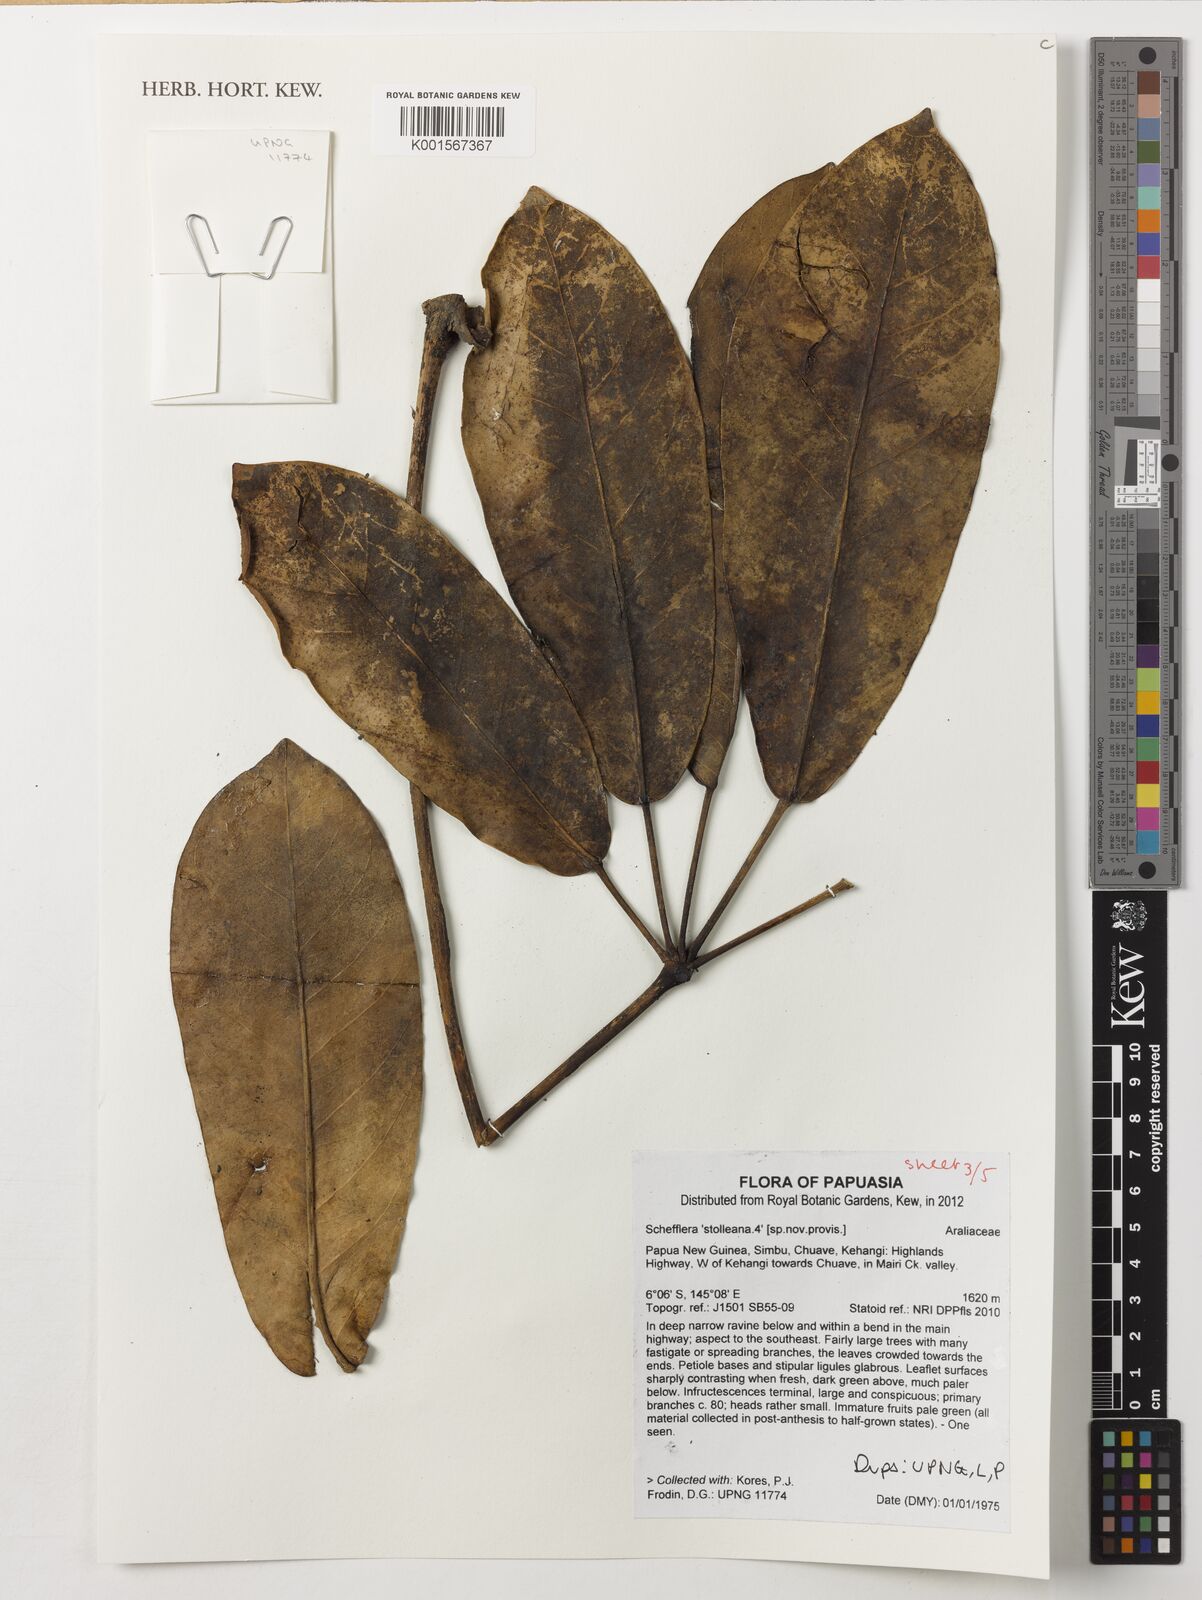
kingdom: Plantae
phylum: Tracheophyta
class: Magnoliopsida
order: Apiales
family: Araliaceae
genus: Heptapleurum
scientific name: Heptapleurum stolleanum
